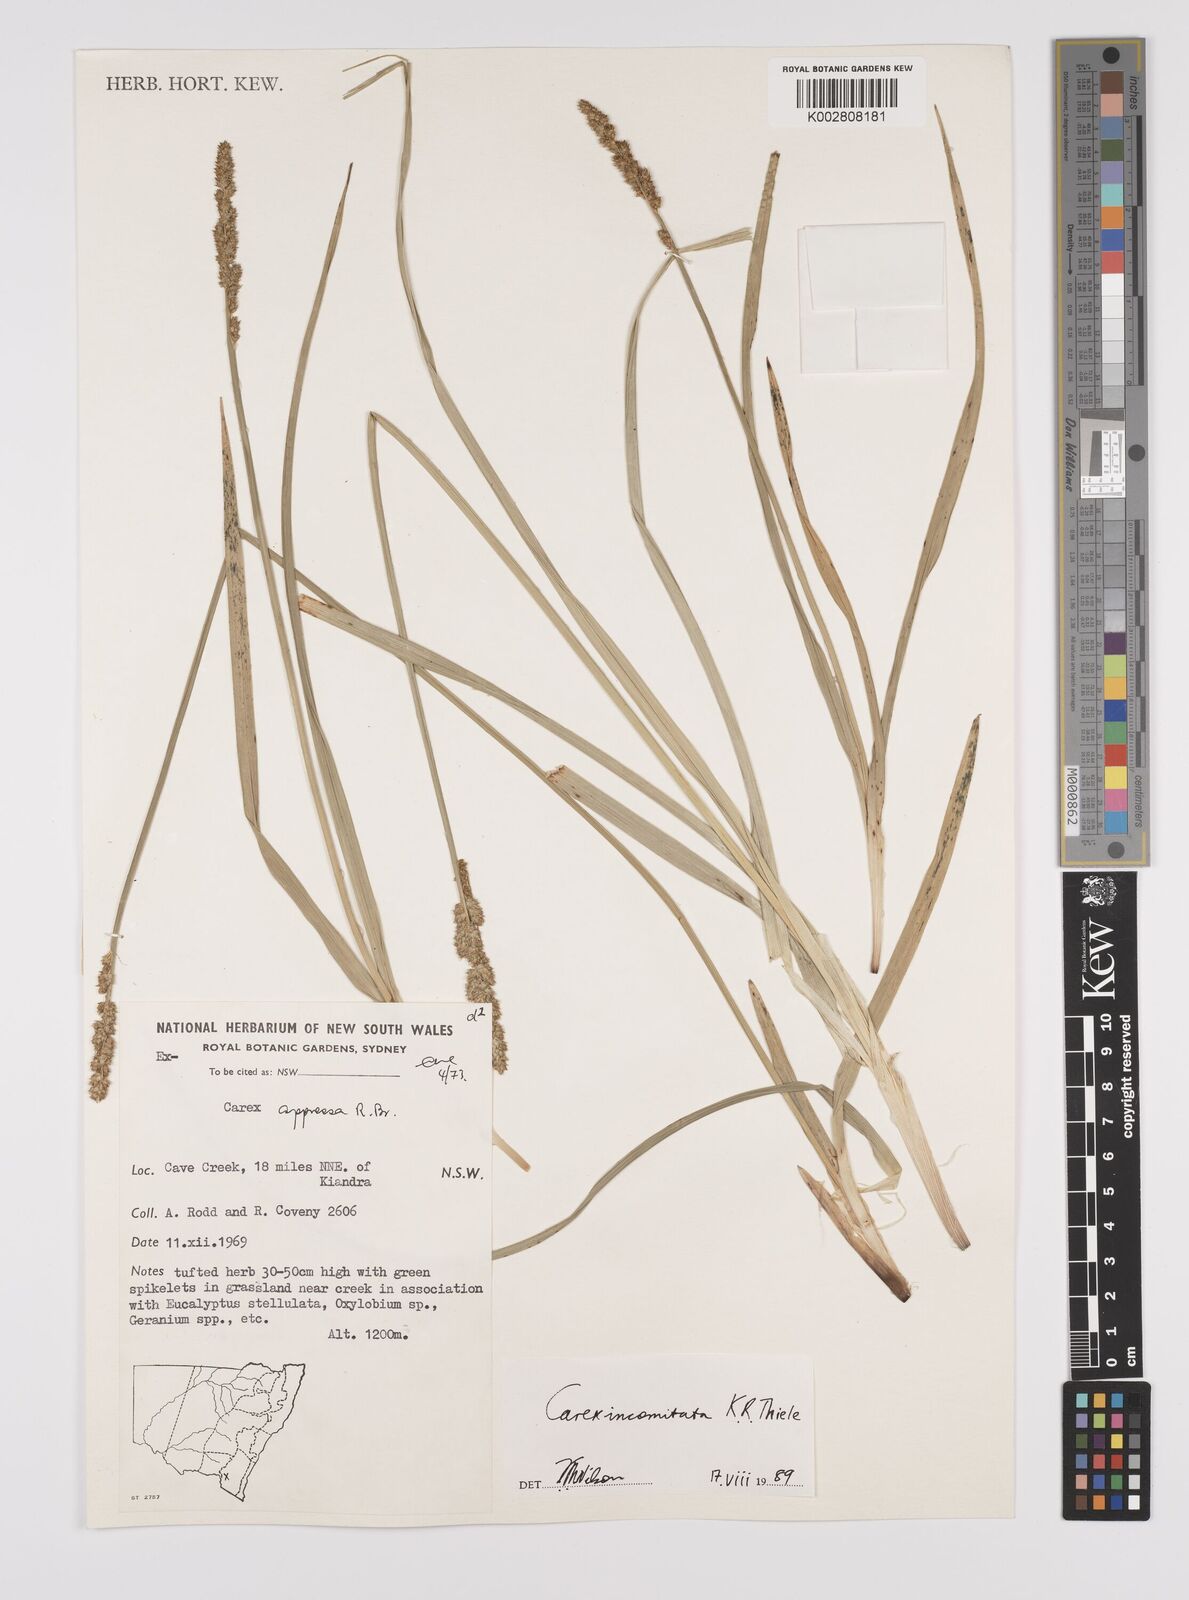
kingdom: Plantae
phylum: Tracheophyta
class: Liliopsida
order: Poales
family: Cyperaceae
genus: Carex
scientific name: Carex incomitata
